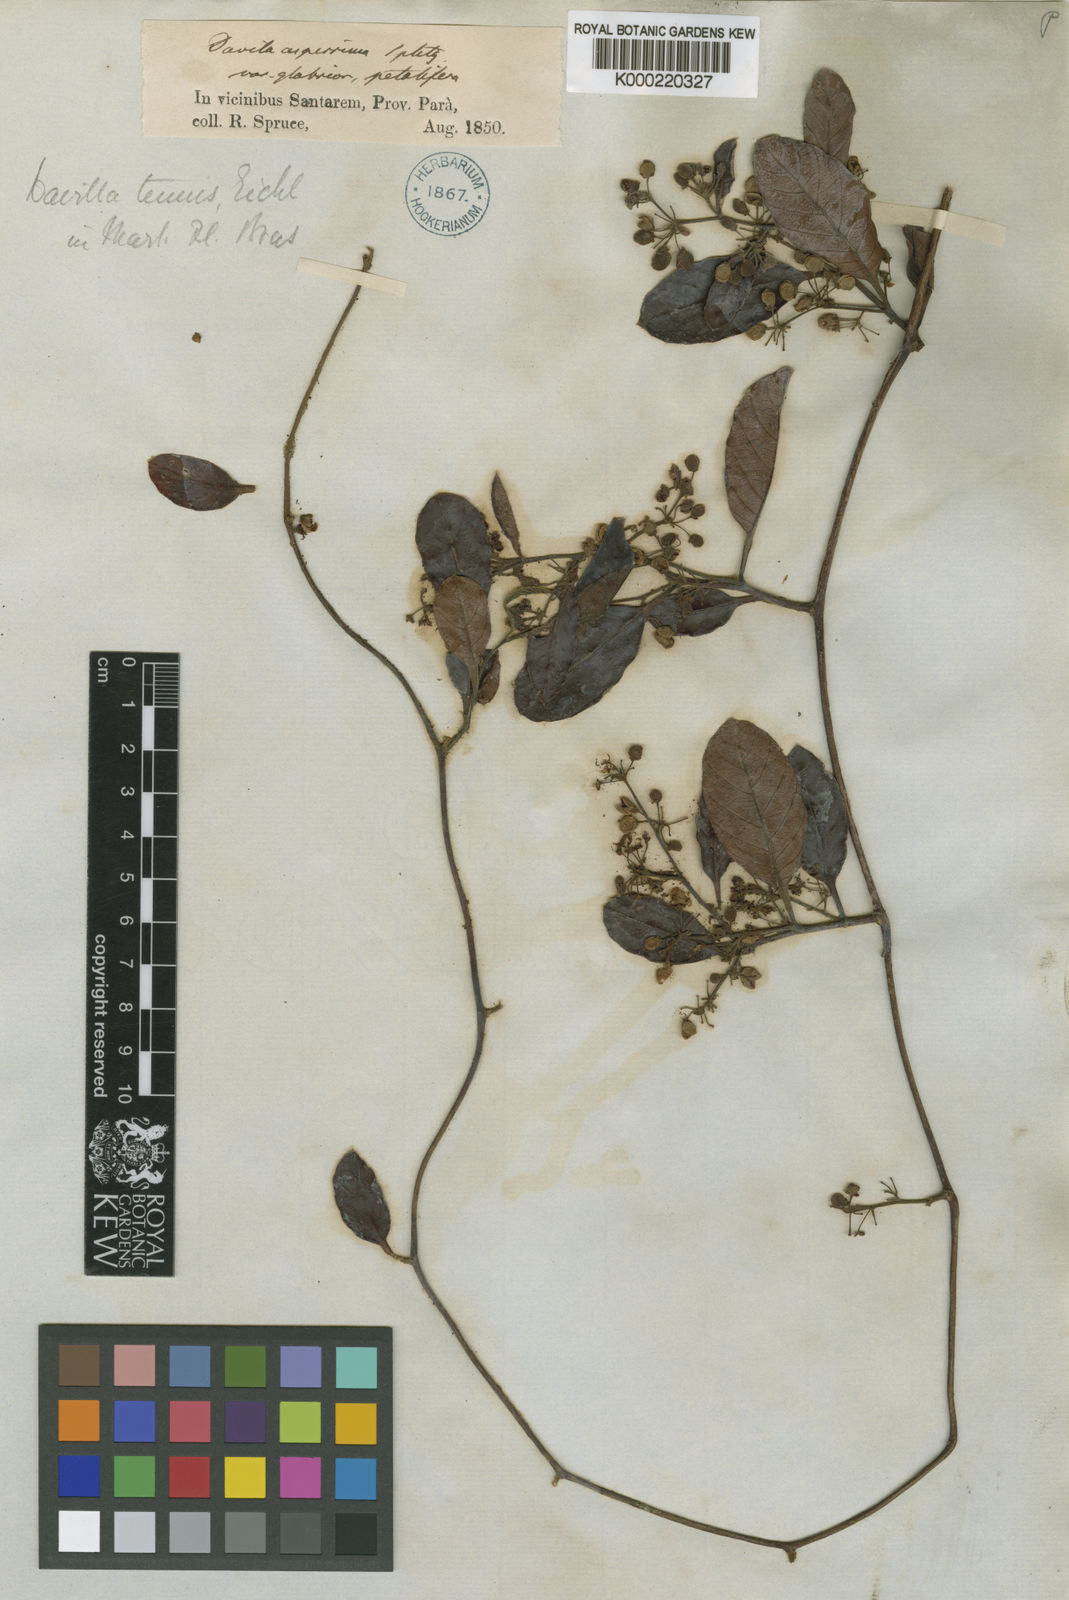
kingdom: Plantae
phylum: Tracheophyta
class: Magnoliopsida
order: Dilleniales
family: Dilleniaceae
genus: Davilla
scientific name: Davilla kunthii
